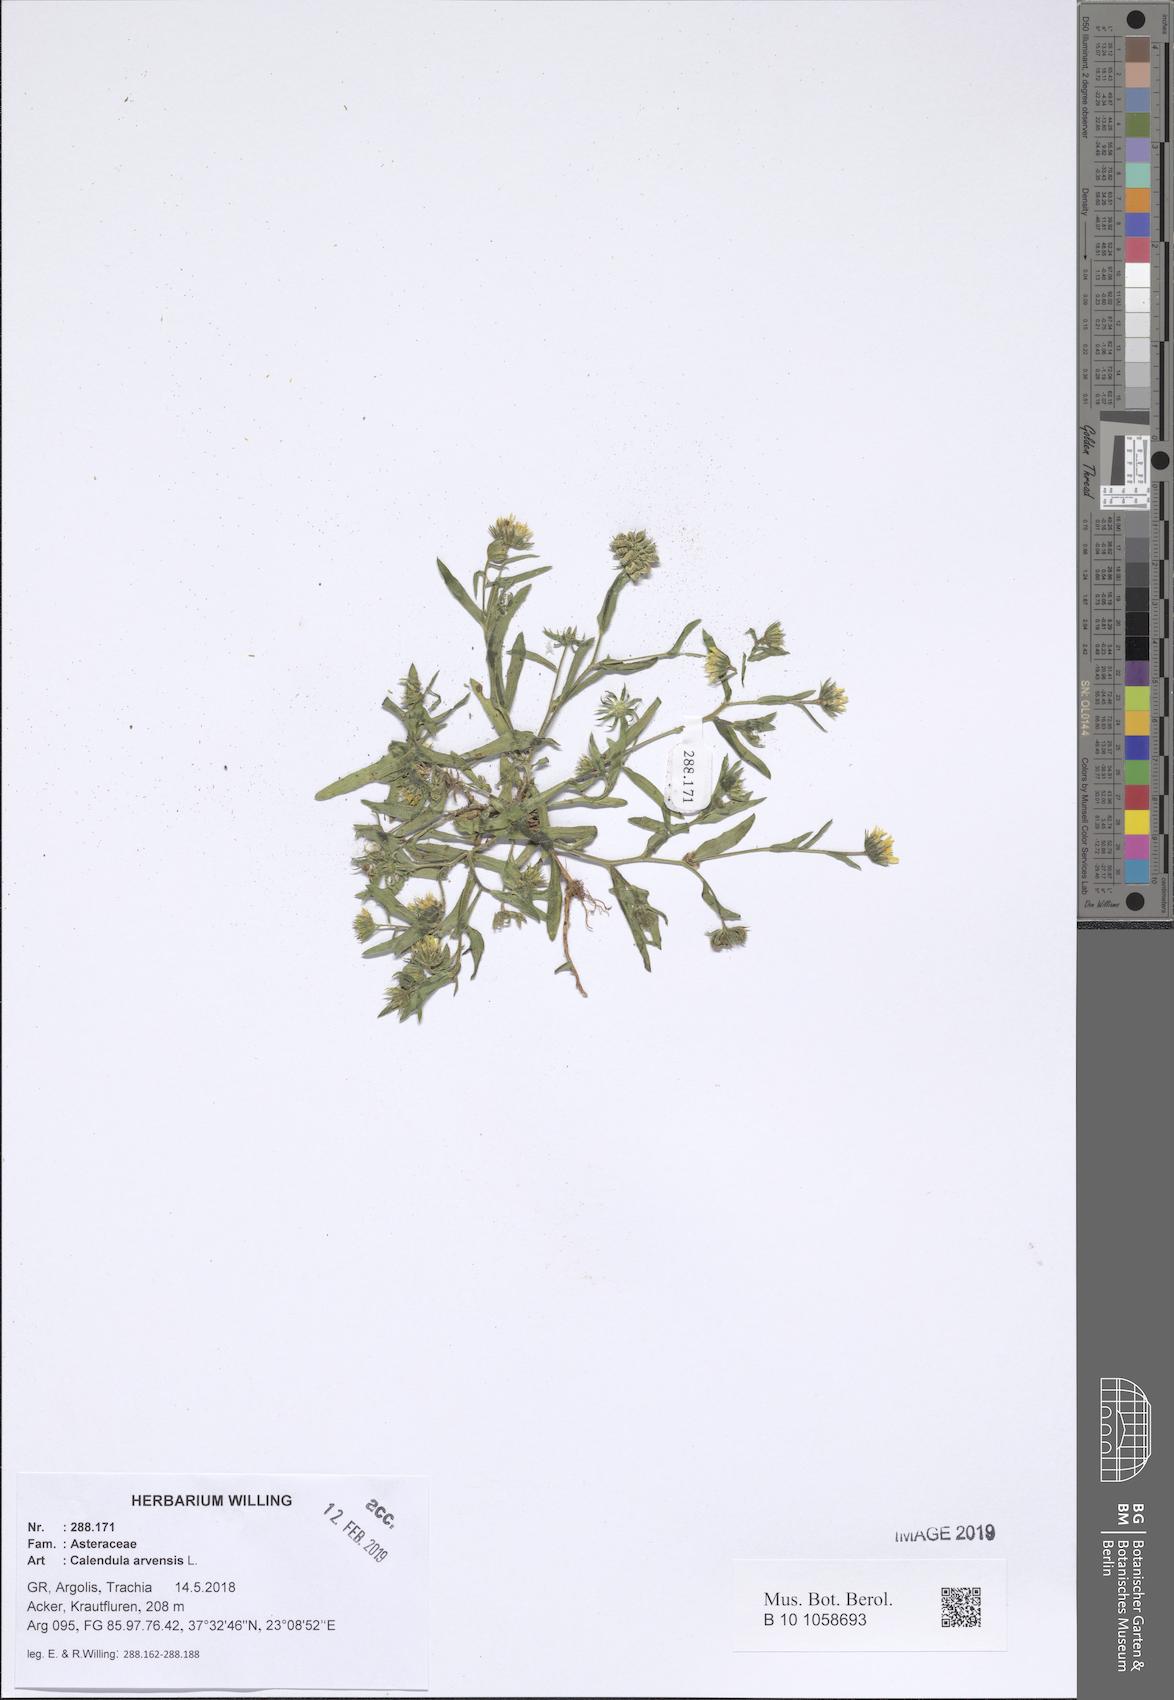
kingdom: Plantae
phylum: Tracheophyta
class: Magnoliopsida
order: Asterales
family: Asteraceae
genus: Calendula
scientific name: Calendula arvensis
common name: Field marigold
